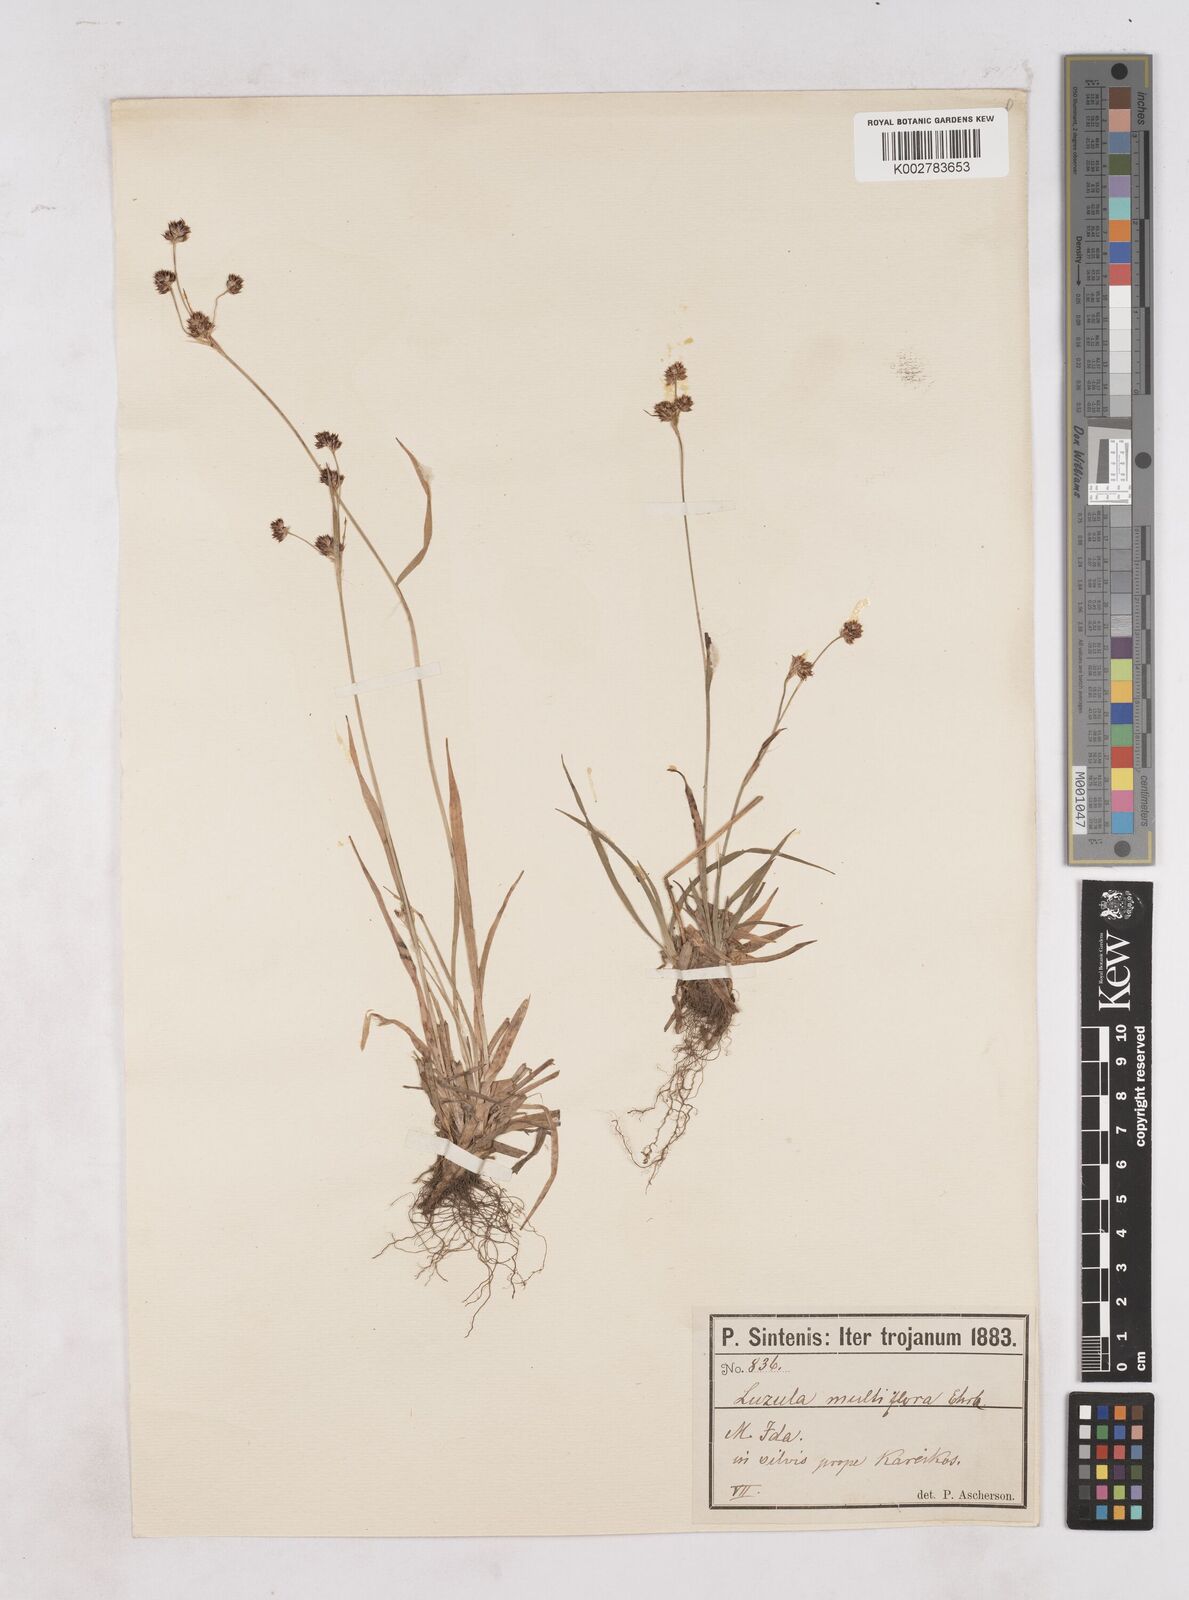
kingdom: Plantae
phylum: Tracheophyta
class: Liliopsida
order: Poales
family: Juncaceae
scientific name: Juncaceae
